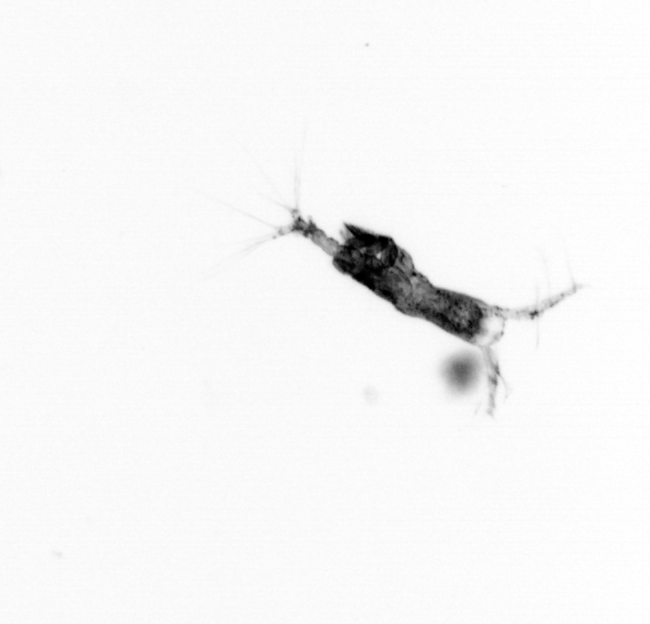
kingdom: Animalia
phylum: Arthropoda
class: Copepoda
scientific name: Copepoda
